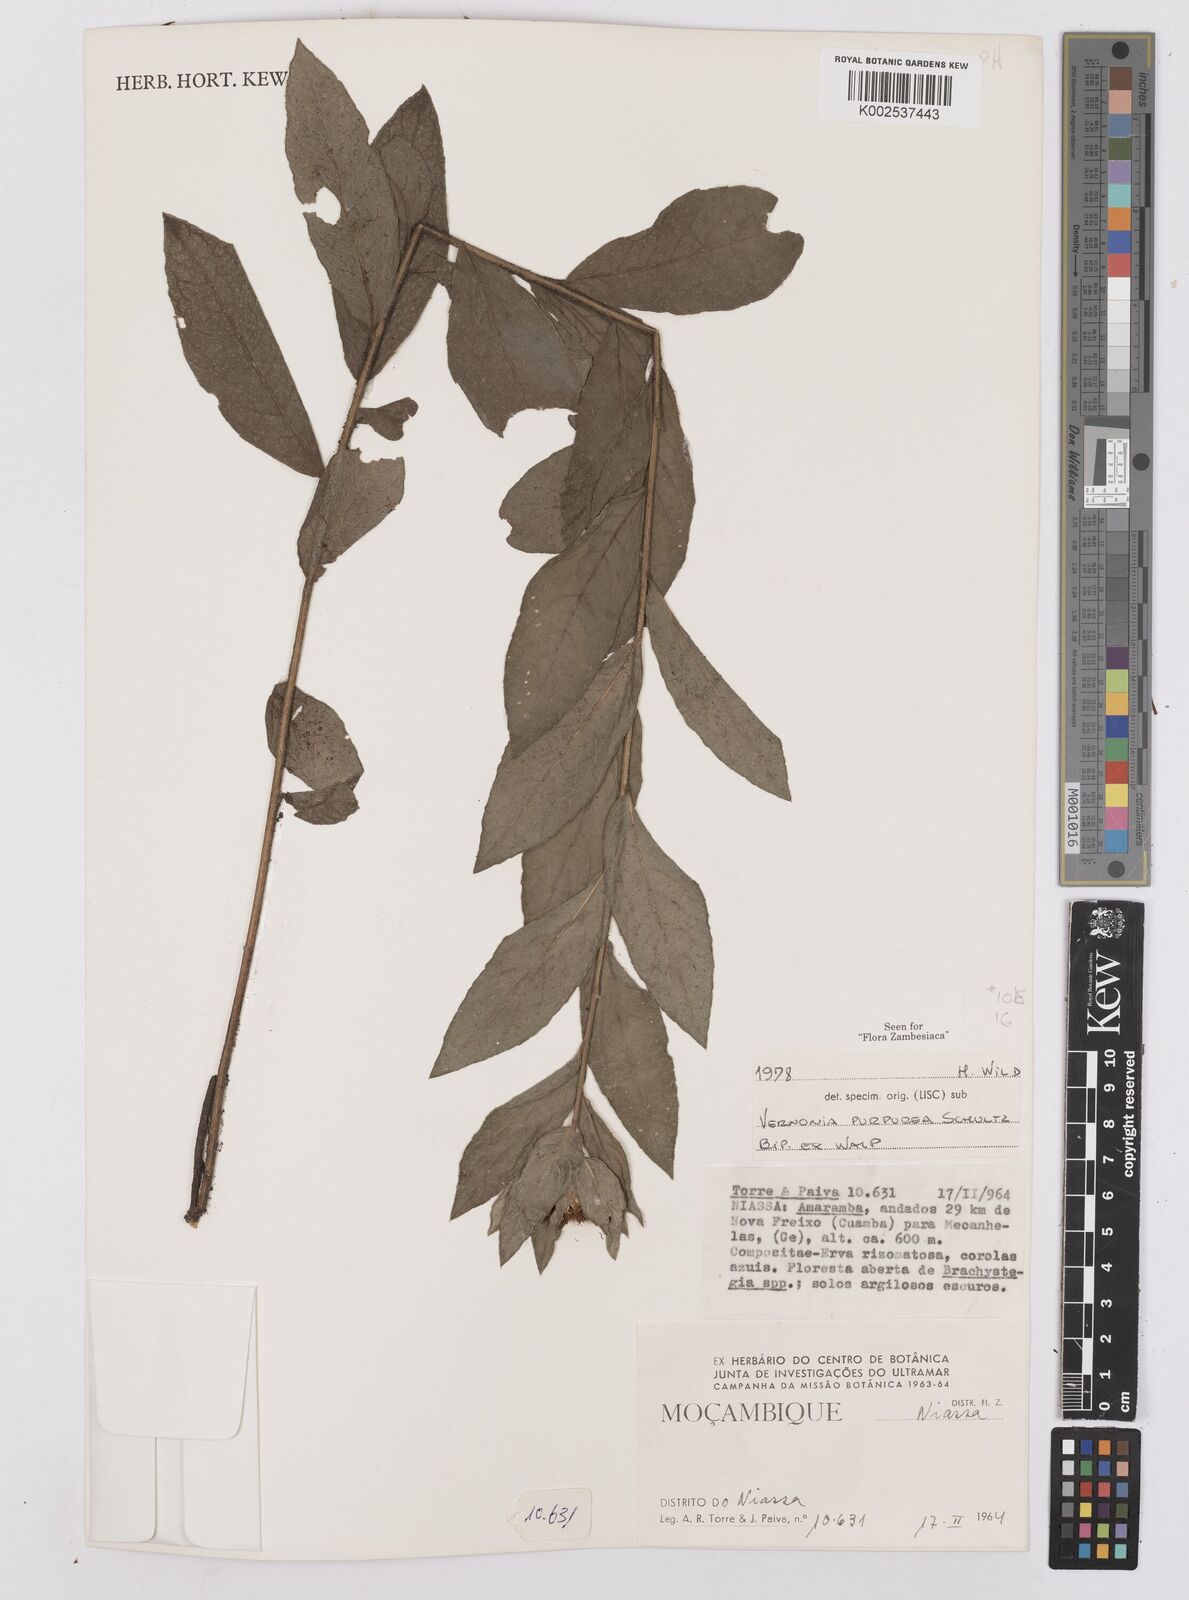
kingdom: Plantae
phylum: Tracheophyta
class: Magnoliopsida
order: Asterales
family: Asteraceae
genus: Nothovernonia
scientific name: Nothovernonia purpurea
